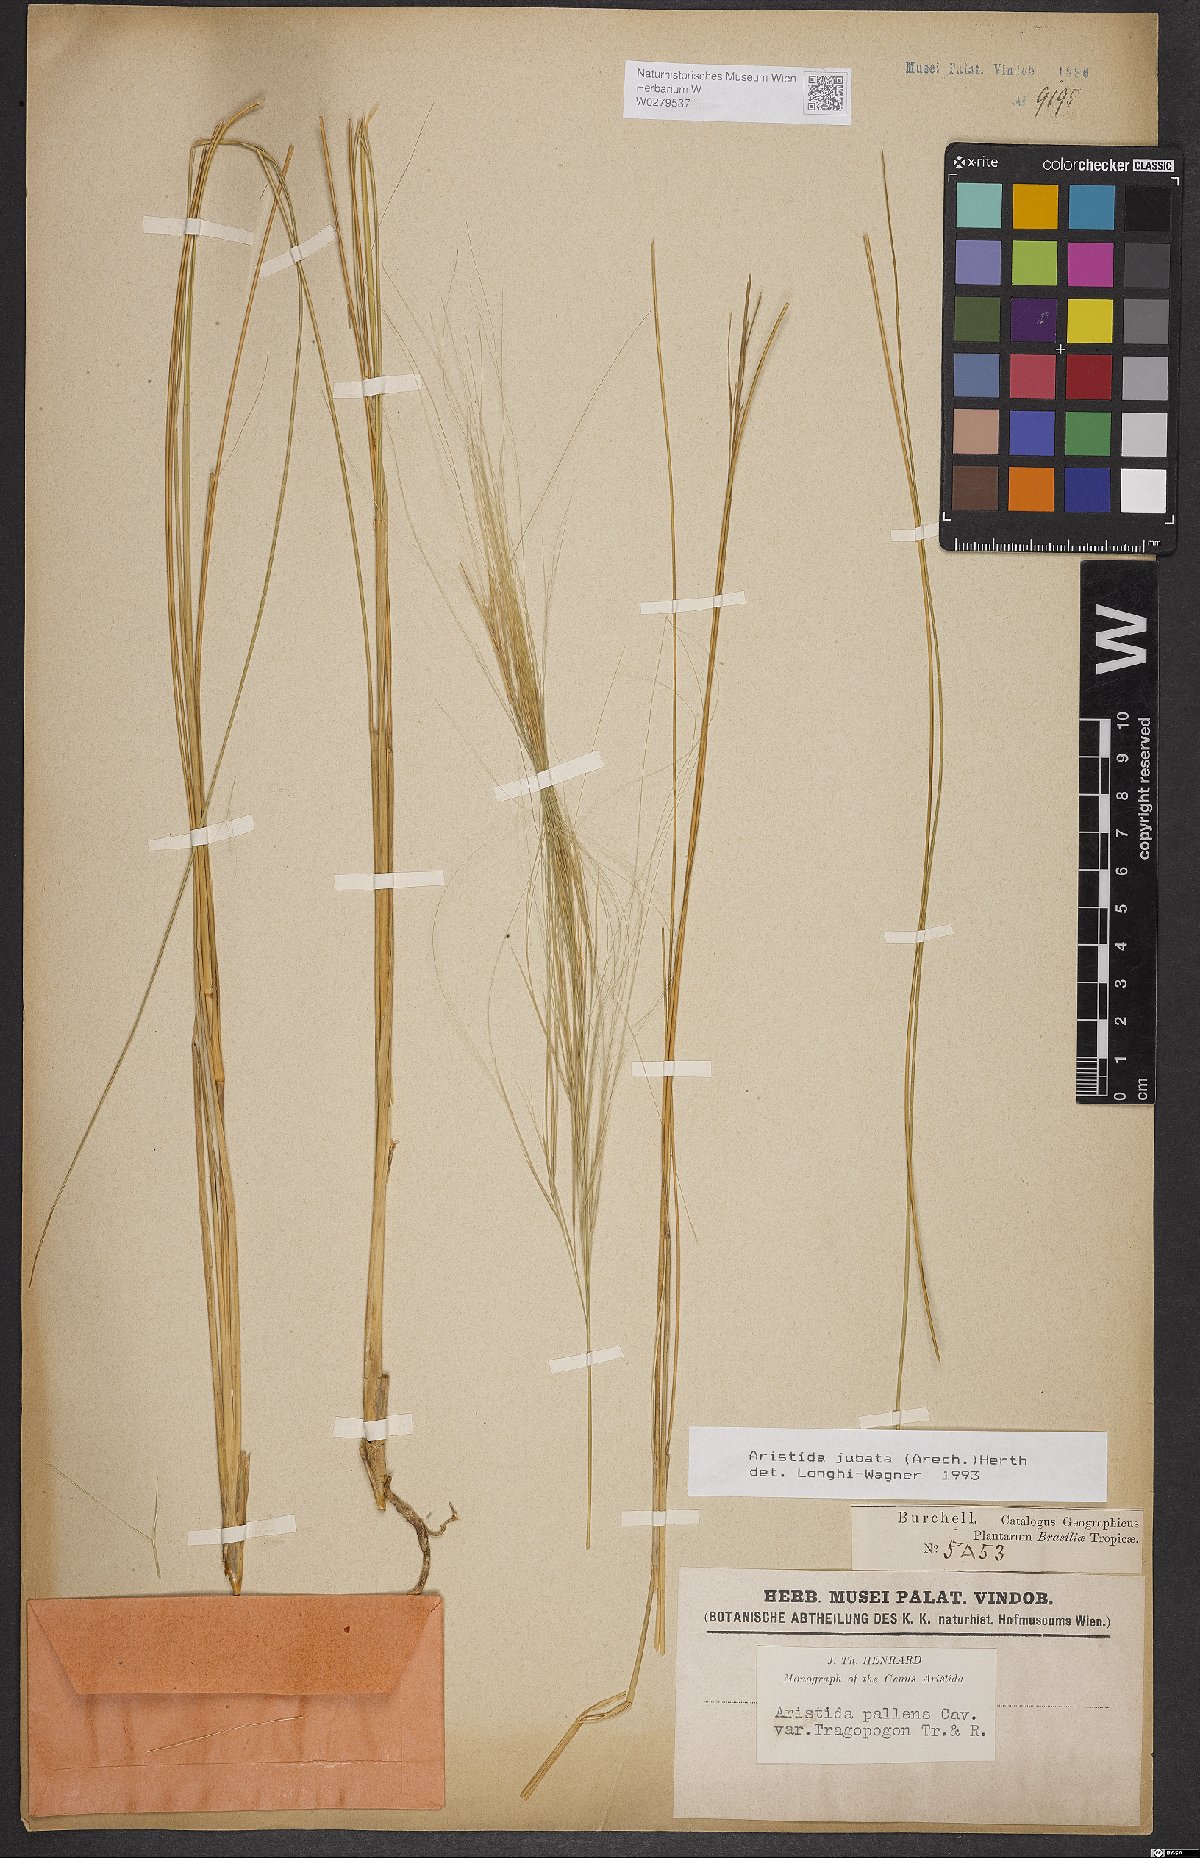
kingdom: Plantae
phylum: Tracheophyta
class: Liliopsida
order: Poales
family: Poaceae
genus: Aristida
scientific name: Aristida jubata
